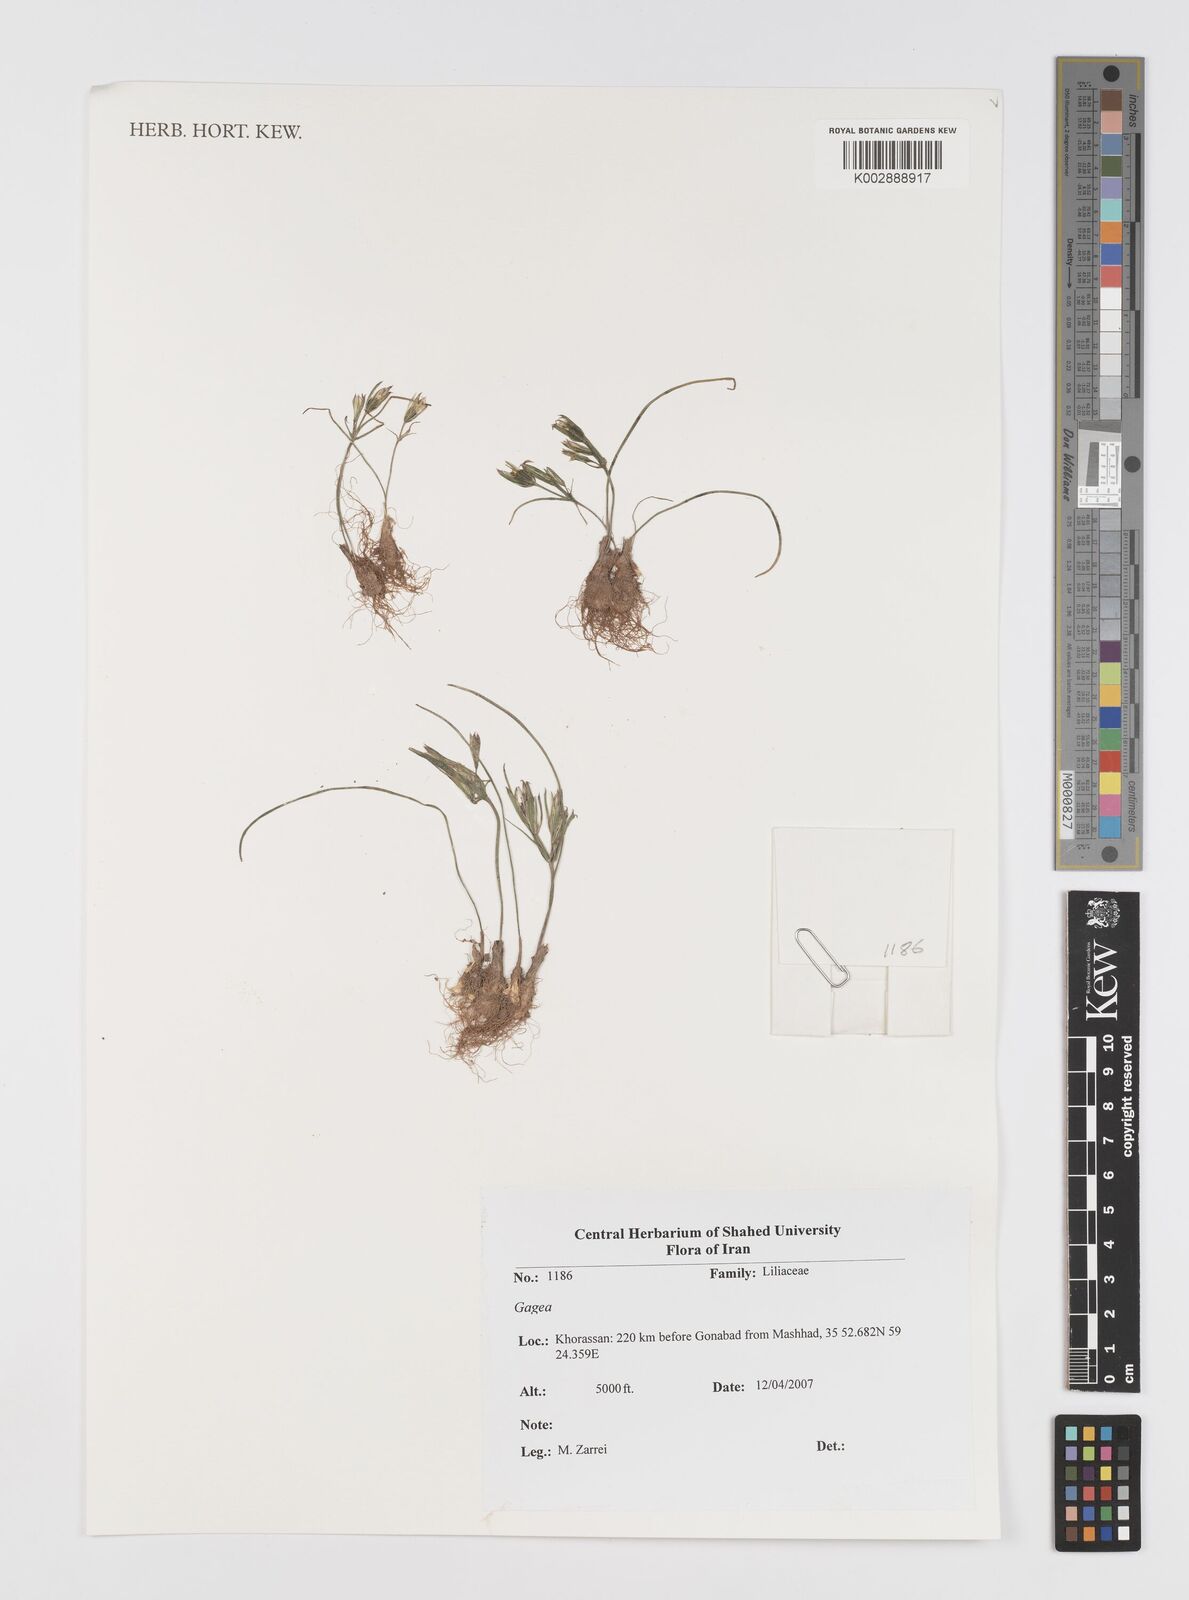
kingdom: Plantae
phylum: Tracheophyta
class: Liliopsida
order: Liliales
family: Liliaceae
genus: Gagea
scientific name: Gagea
